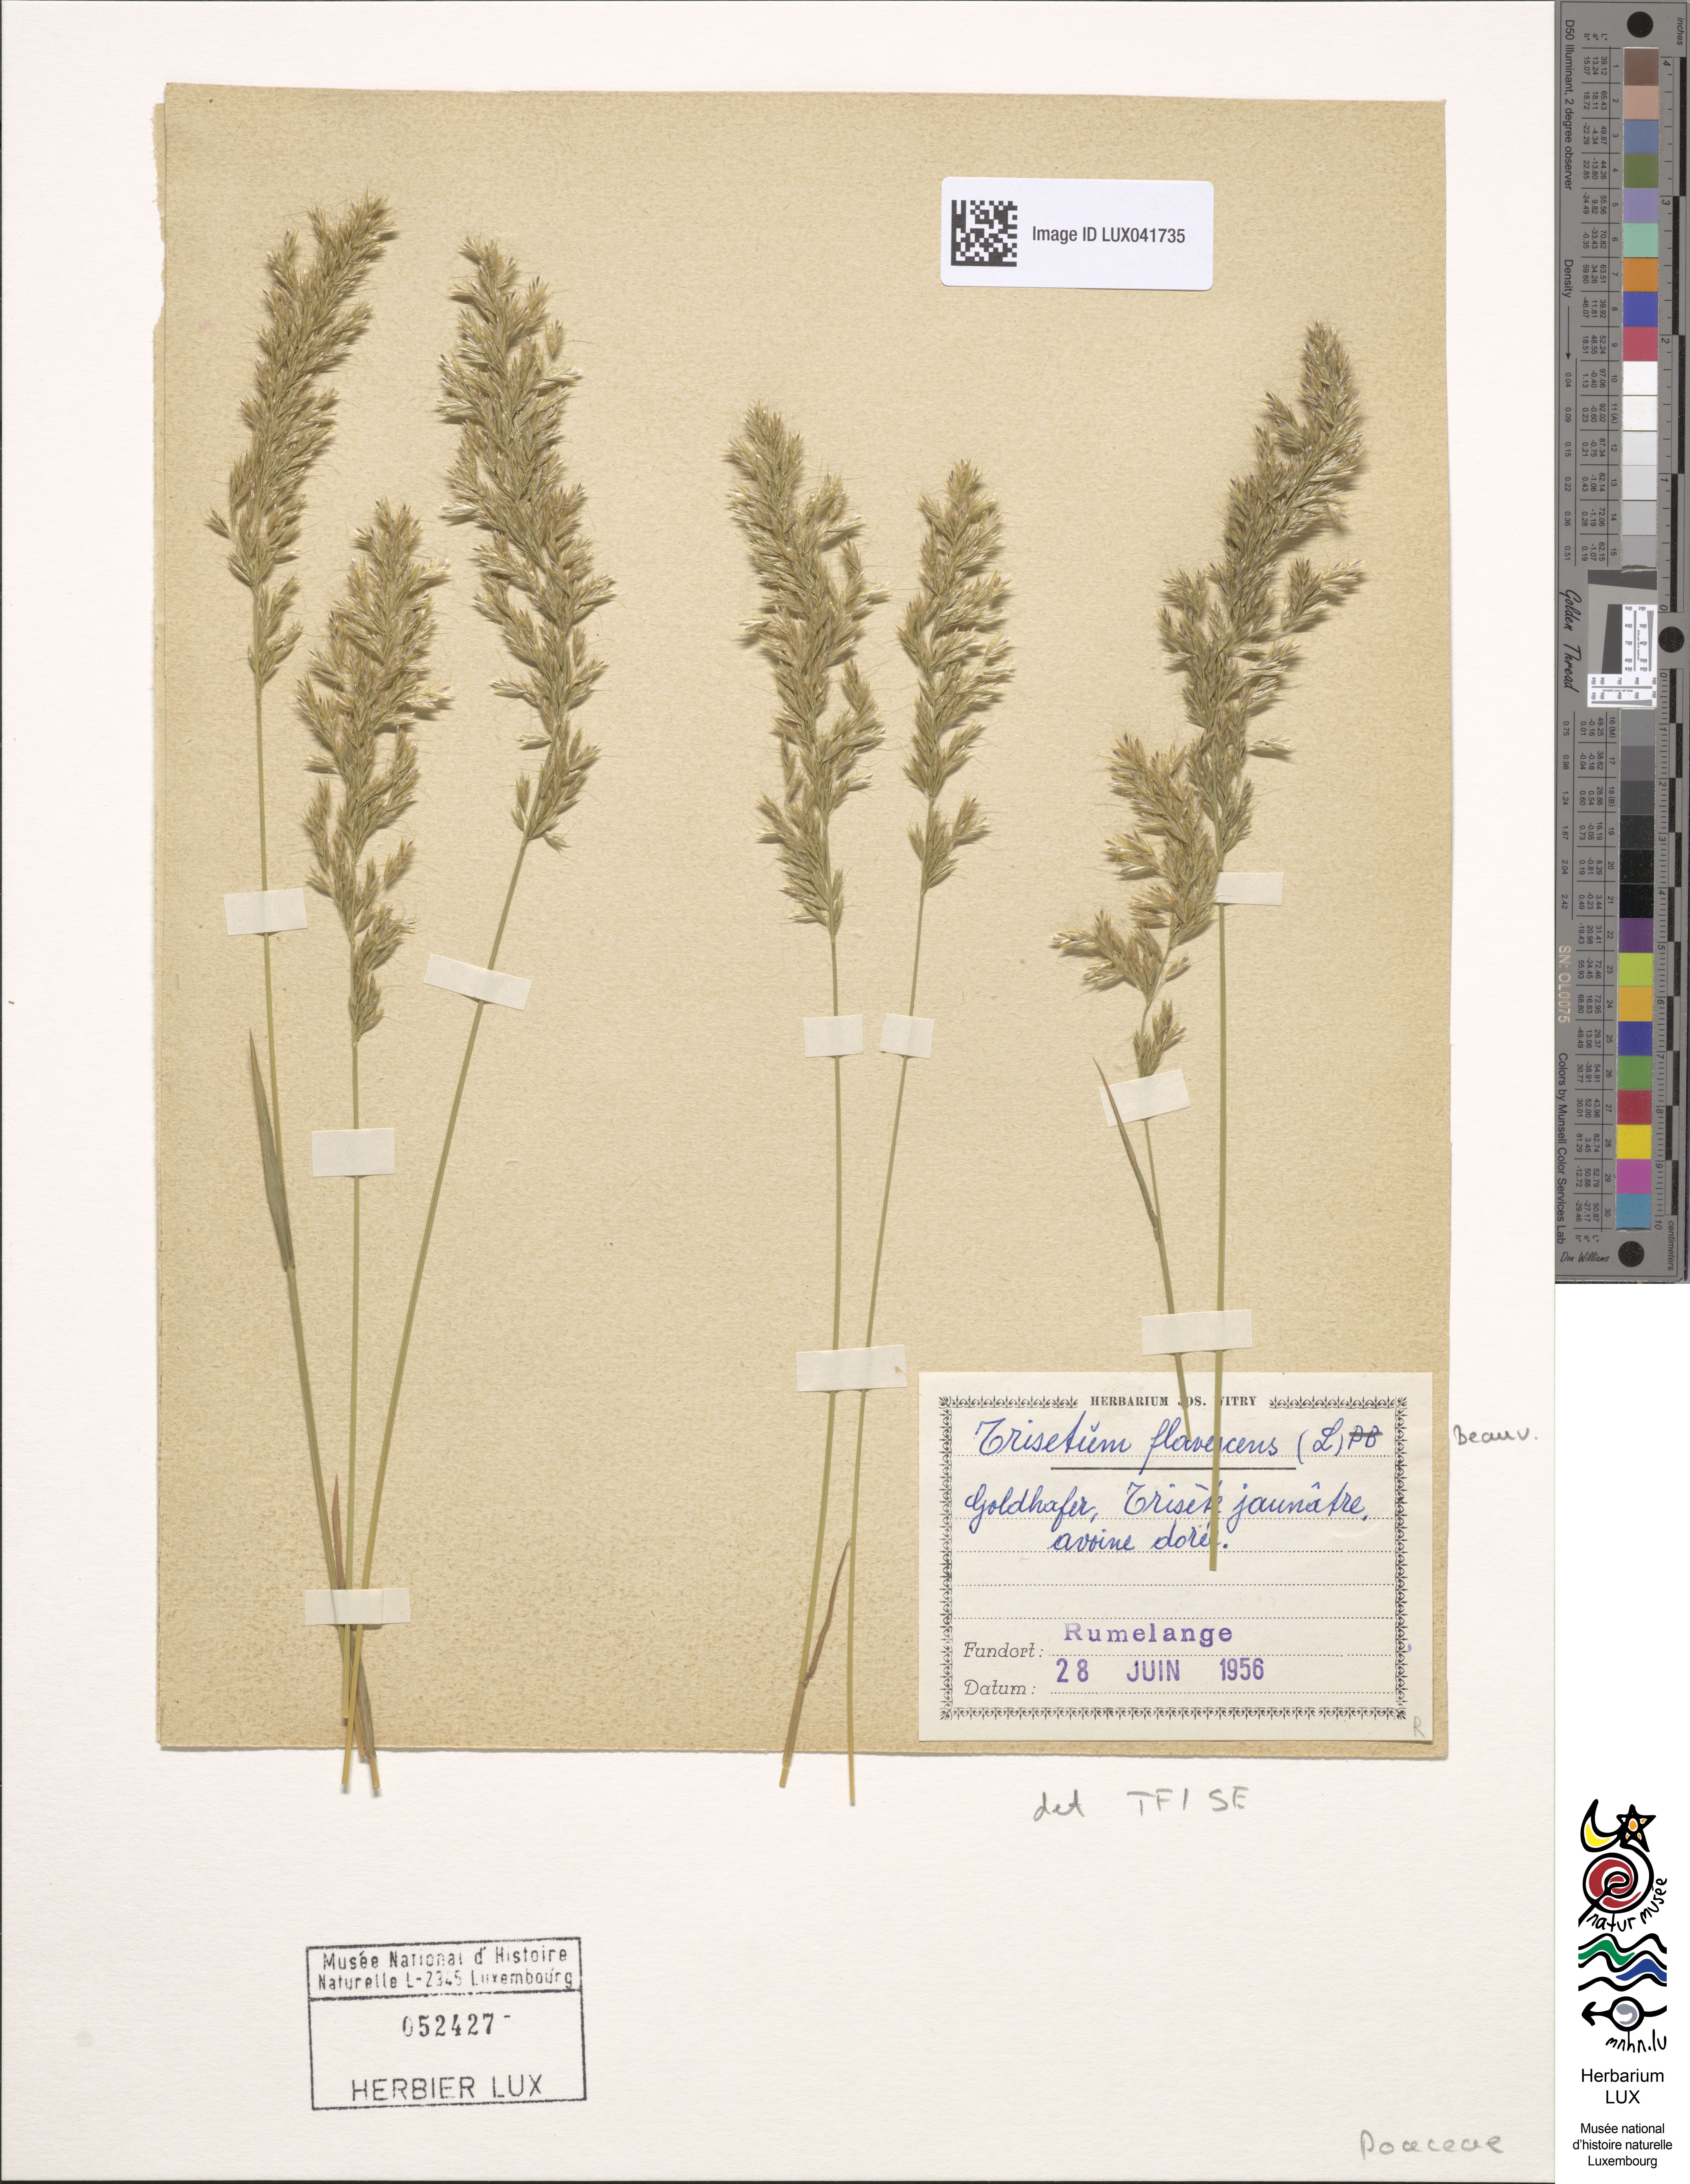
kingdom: Plantae
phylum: Tracheophyta
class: Liliopsida
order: Poales
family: Poaceae
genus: Trisetum
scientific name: Trisetum flavescens
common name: Yellow oat-grass
